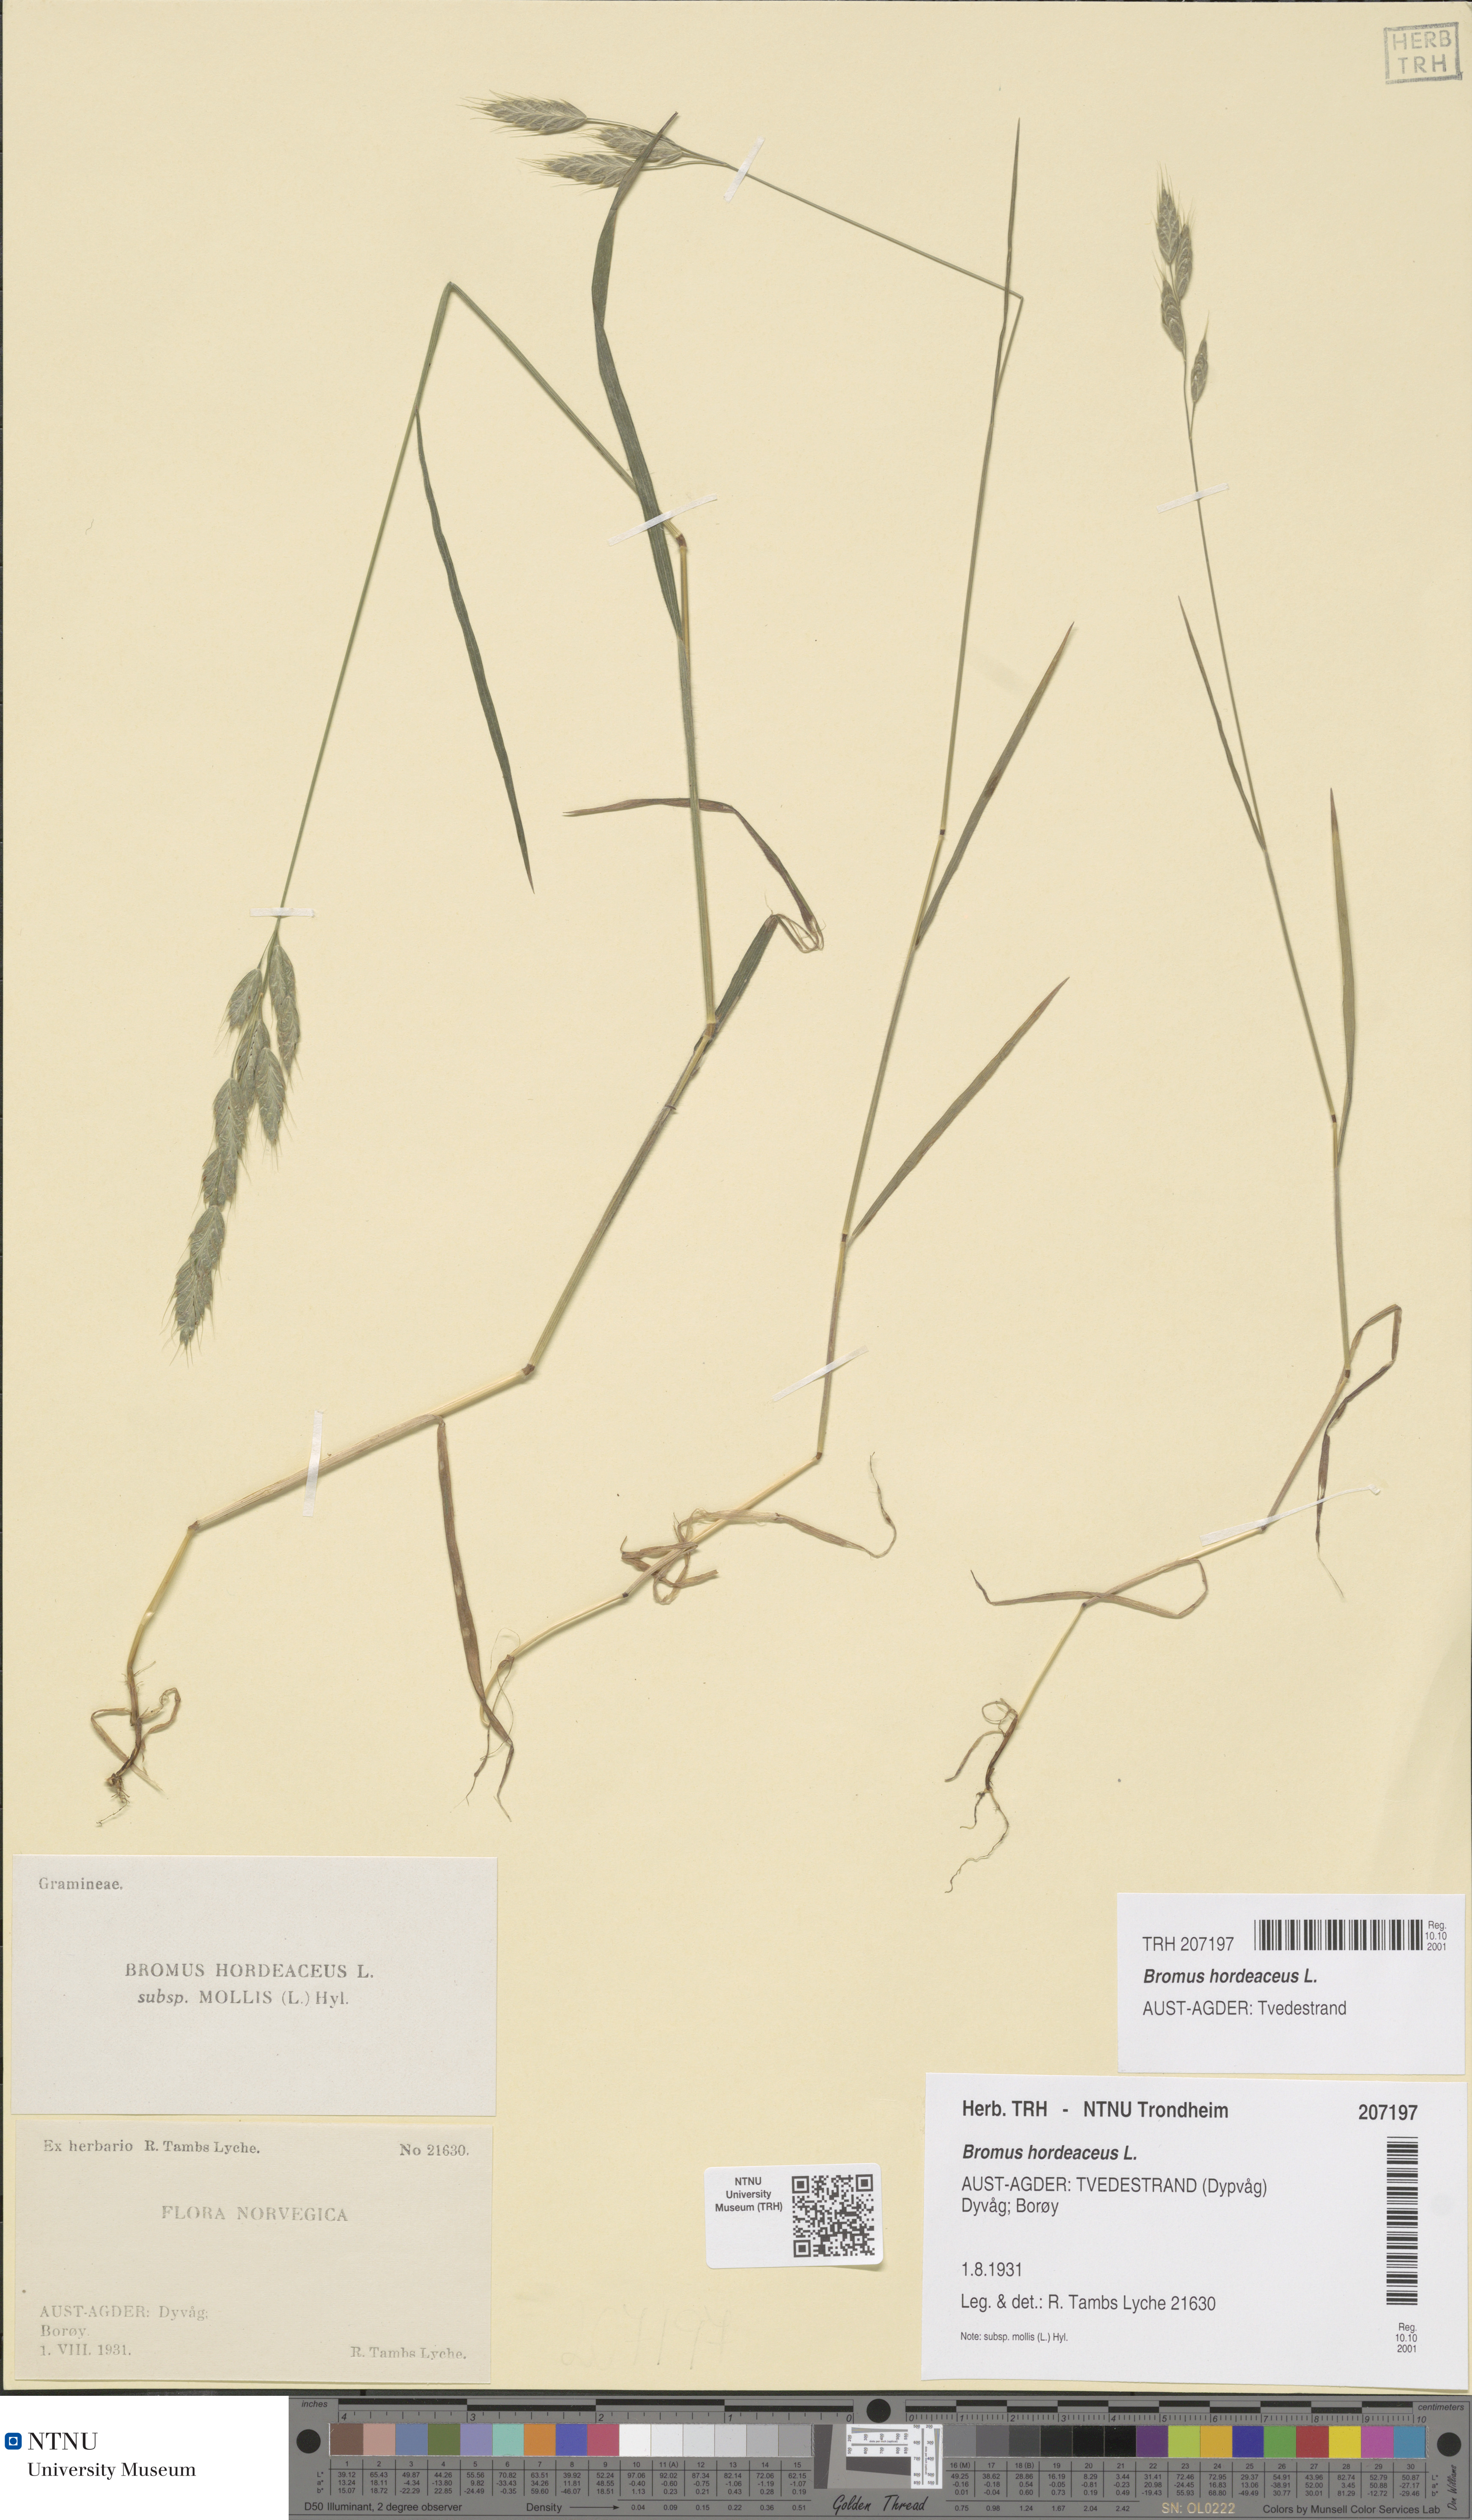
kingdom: Plantae
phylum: Tracheophyta
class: Liliopsida
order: Poales
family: Poaceae
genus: Bromus
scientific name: Bromus hordeaceus
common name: Soft brome
